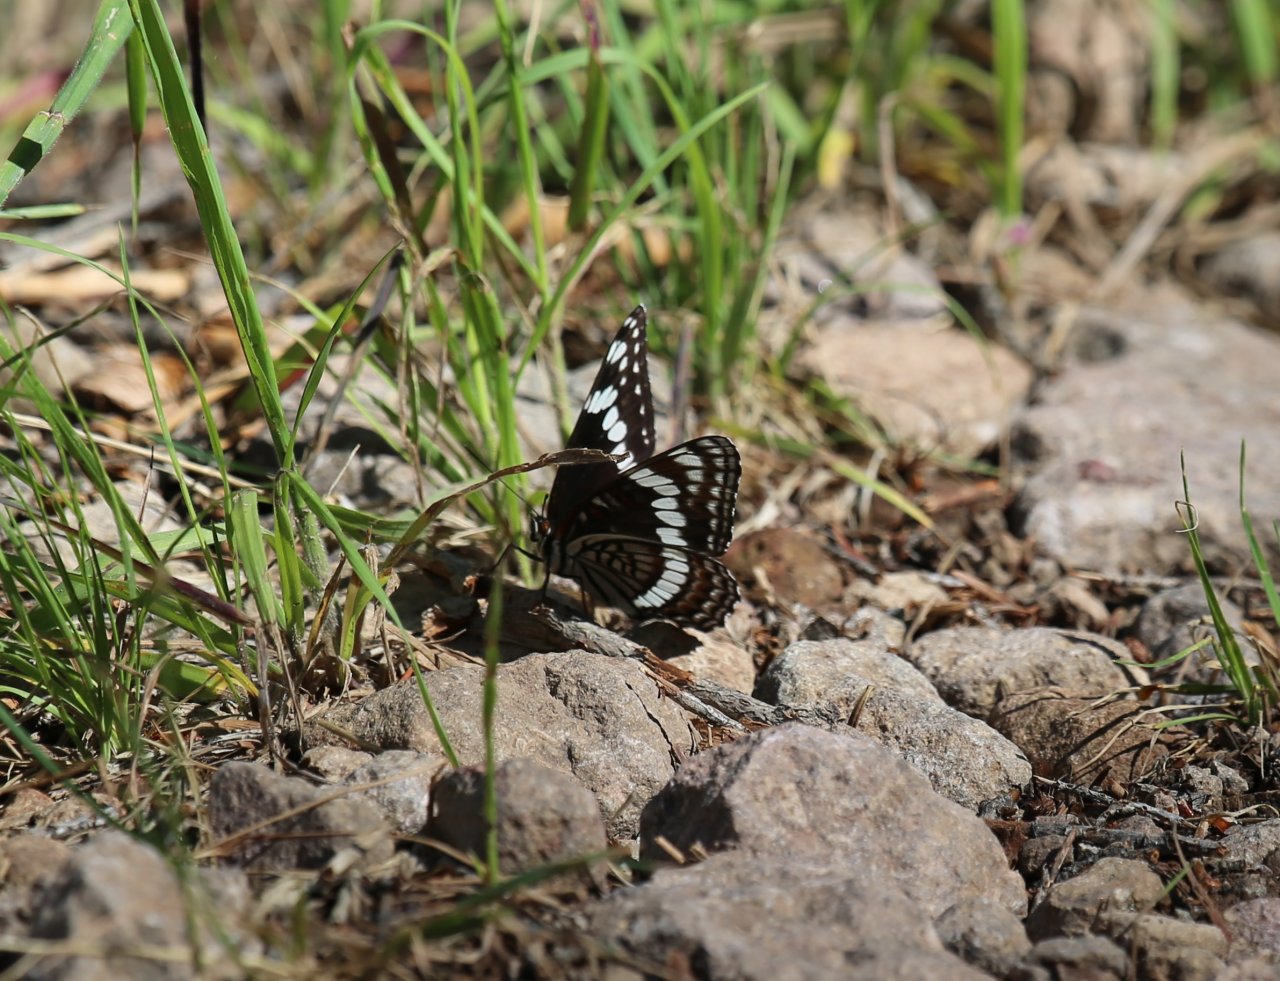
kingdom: Animalia
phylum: Arthropoda
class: Insecta
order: Lepidoptera
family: Nymphalidae
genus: Limenitis
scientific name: Limenitis weidemeyerii
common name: Weidemeyer's Admiral
